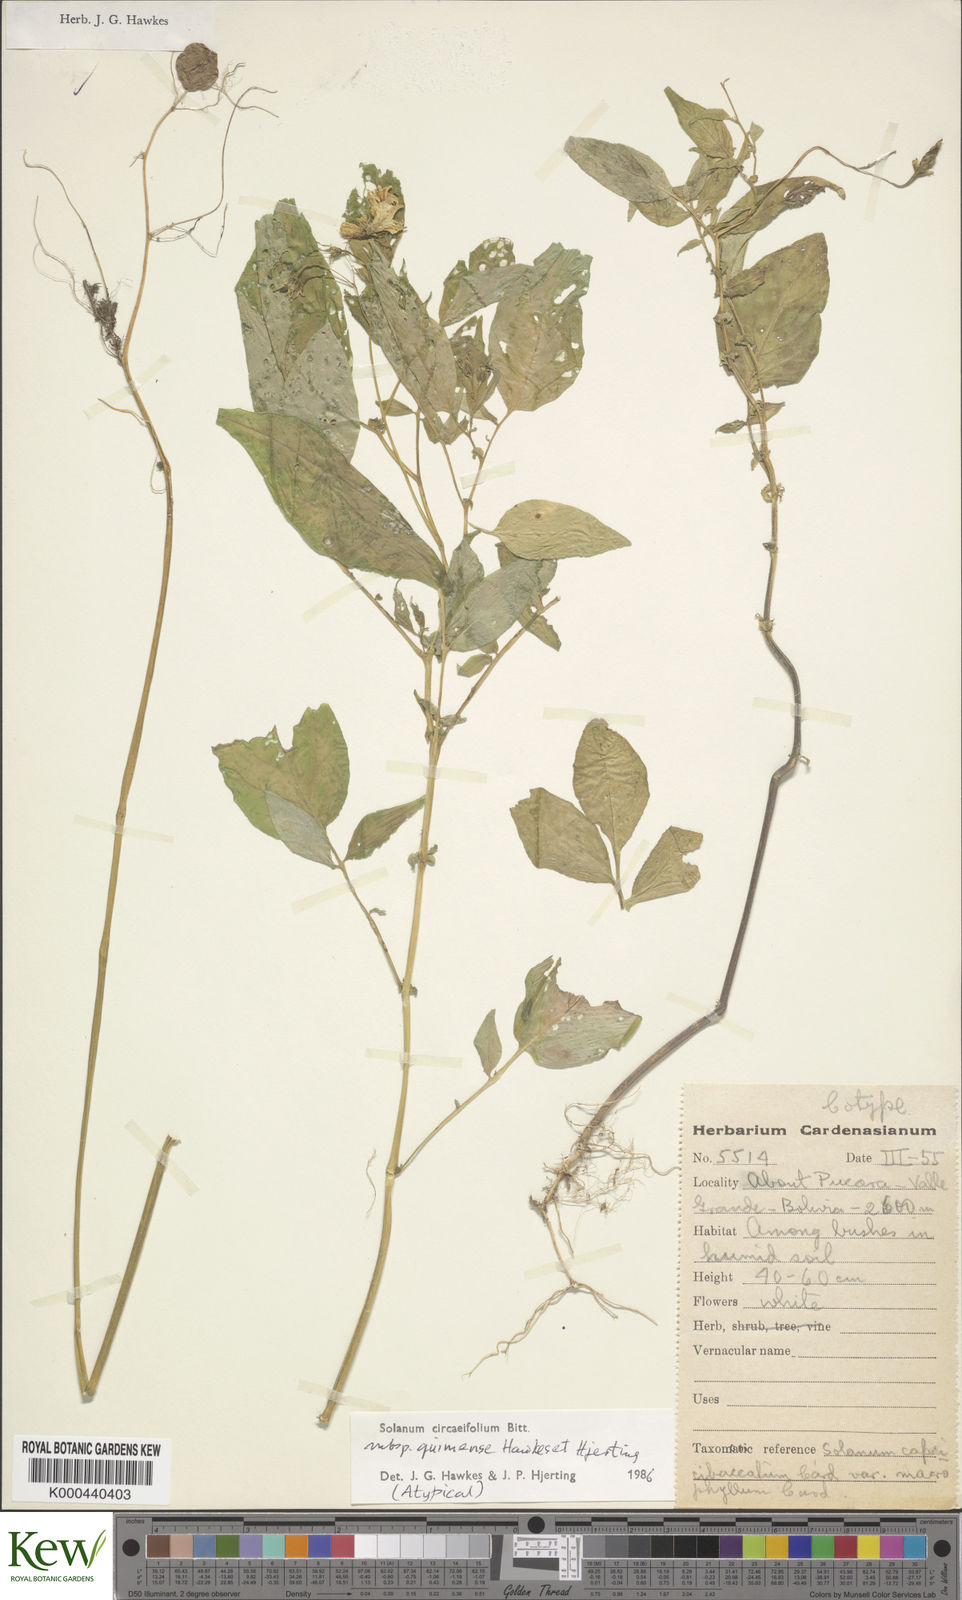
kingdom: Plantae
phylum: Tracheophyta
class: Magnoliopsida
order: Solanales
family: Solanaceae
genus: Solanum
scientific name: Solanum stipuloideum
